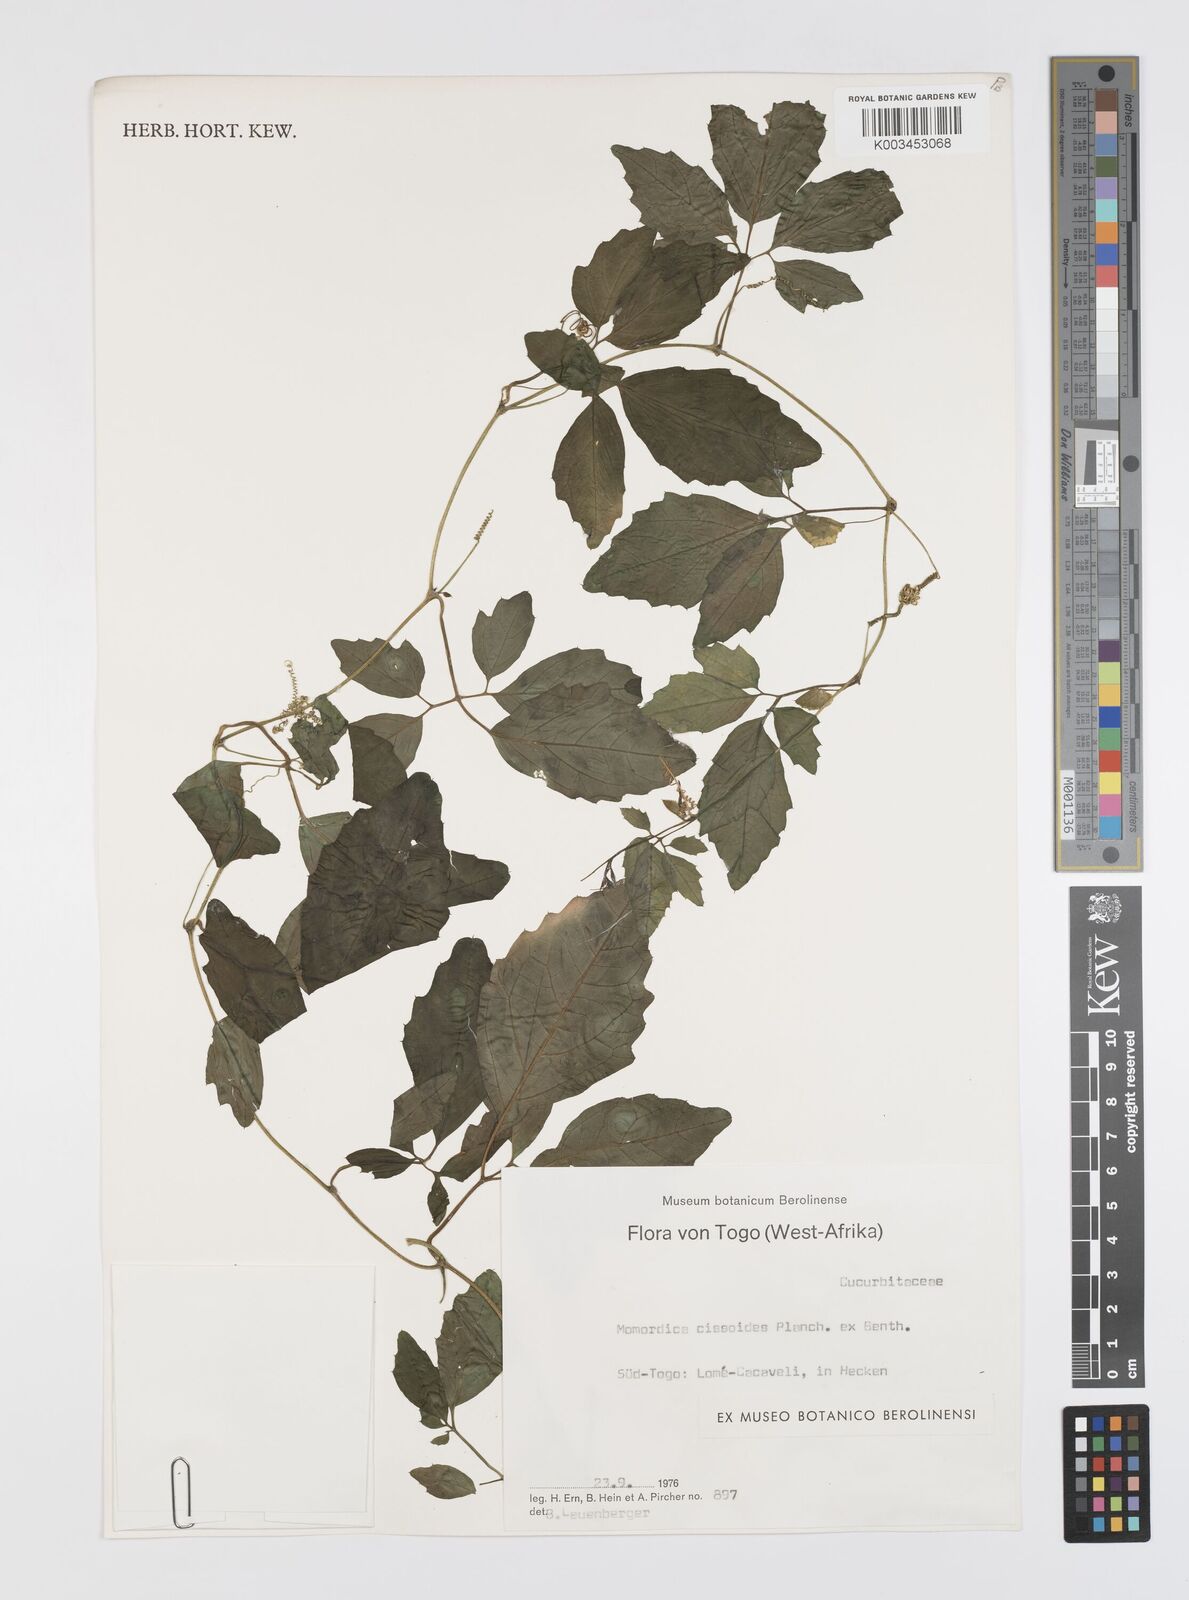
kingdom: Plantae
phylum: Tracheophyta
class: Magnoliopsida
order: Cucurbitales
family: Cucurbitaceae
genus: Momordica
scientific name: Momordica cissoides
